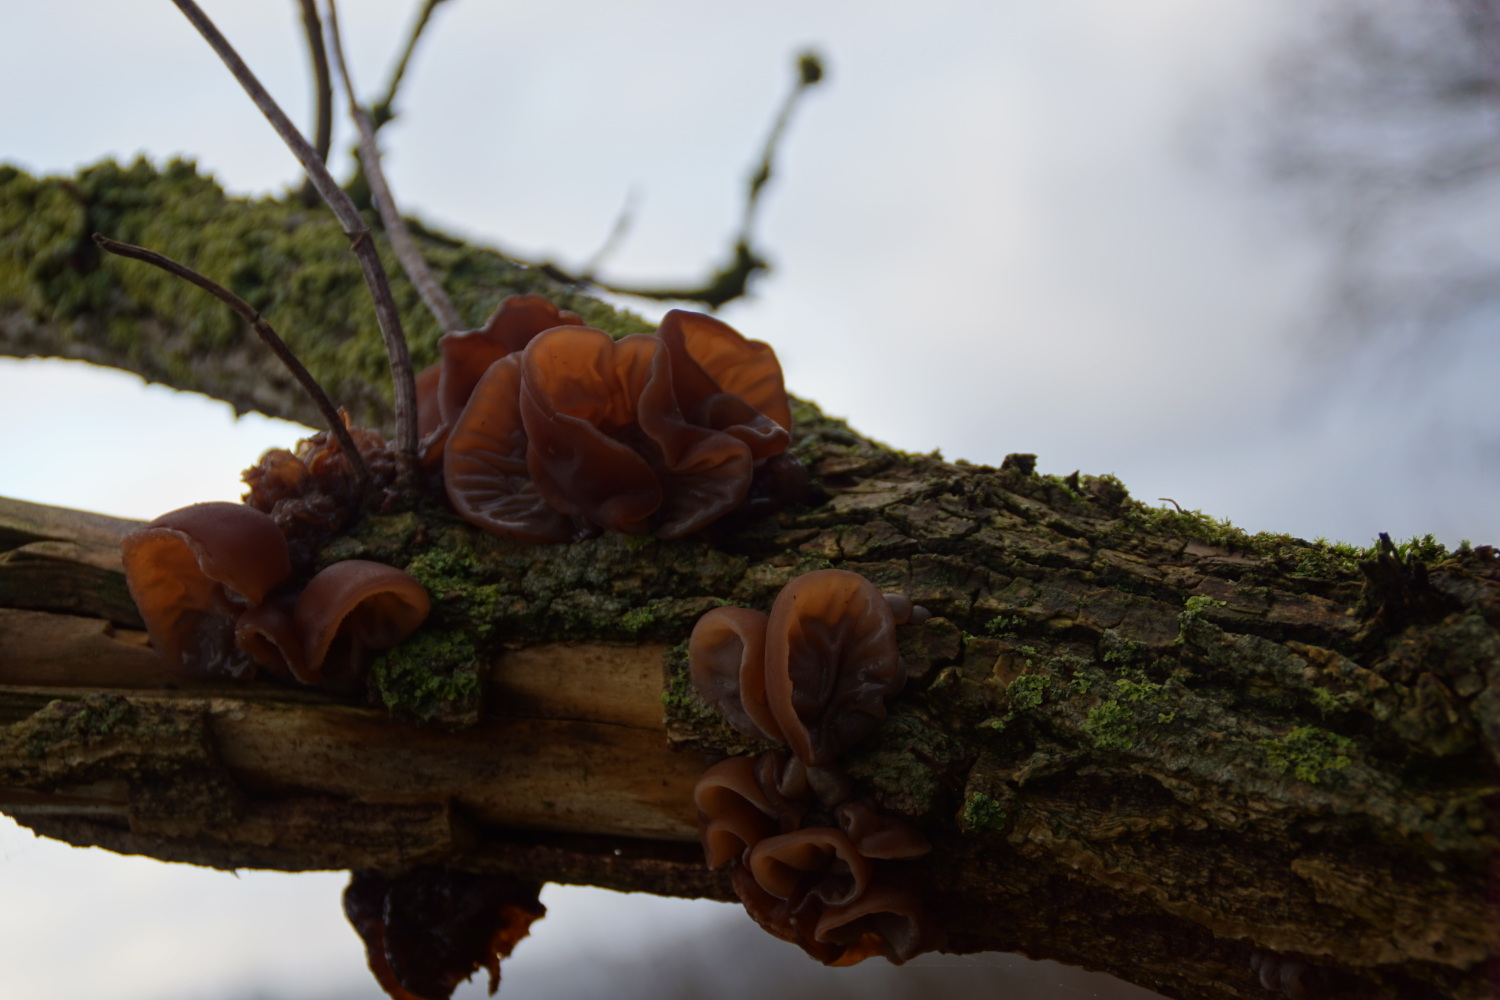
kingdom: Fungi
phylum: Basidiomycota
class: Agaricomycetes
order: Auriculariales
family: Auriculariaceae
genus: Auricularia
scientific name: Auricularia auricula-judae
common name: almindelig judasøre
